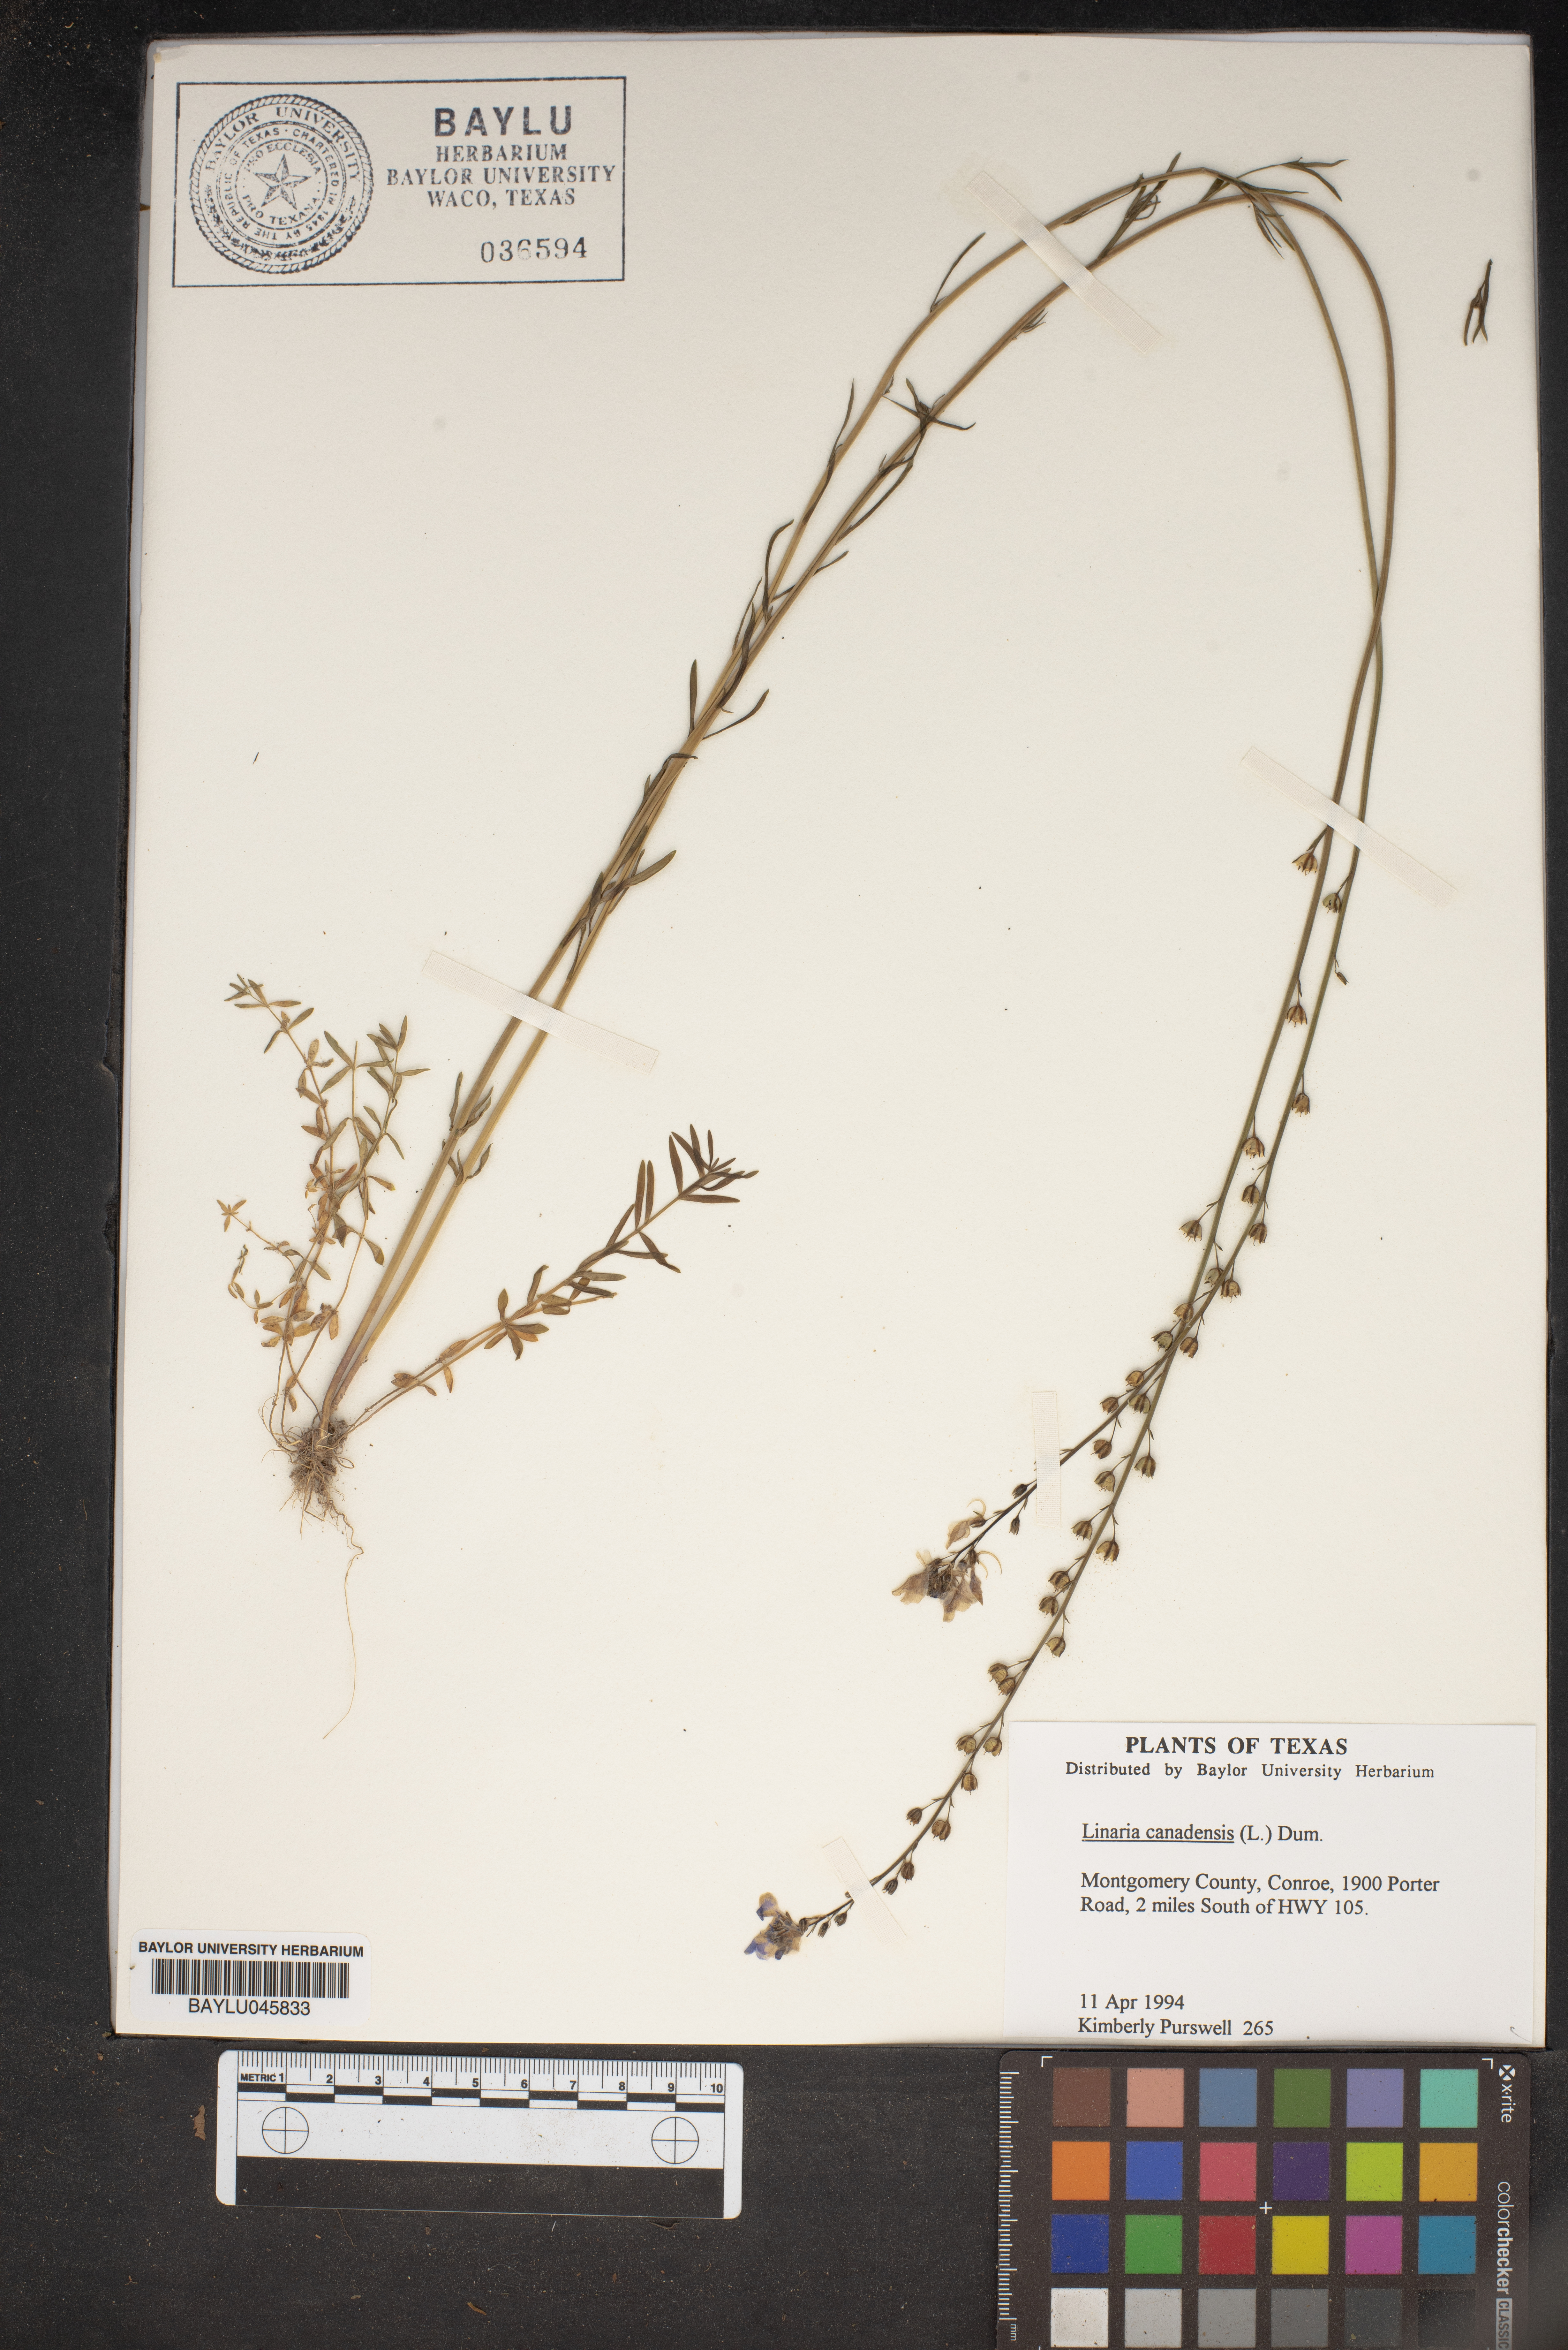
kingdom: Plantae
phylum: Tracheophyta
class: Magnoliopsida
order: Lamiales
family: Plantaginaceae
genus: Nuttallanthus
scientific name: Nuttallanthus canadensis
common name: Blue toadflax
